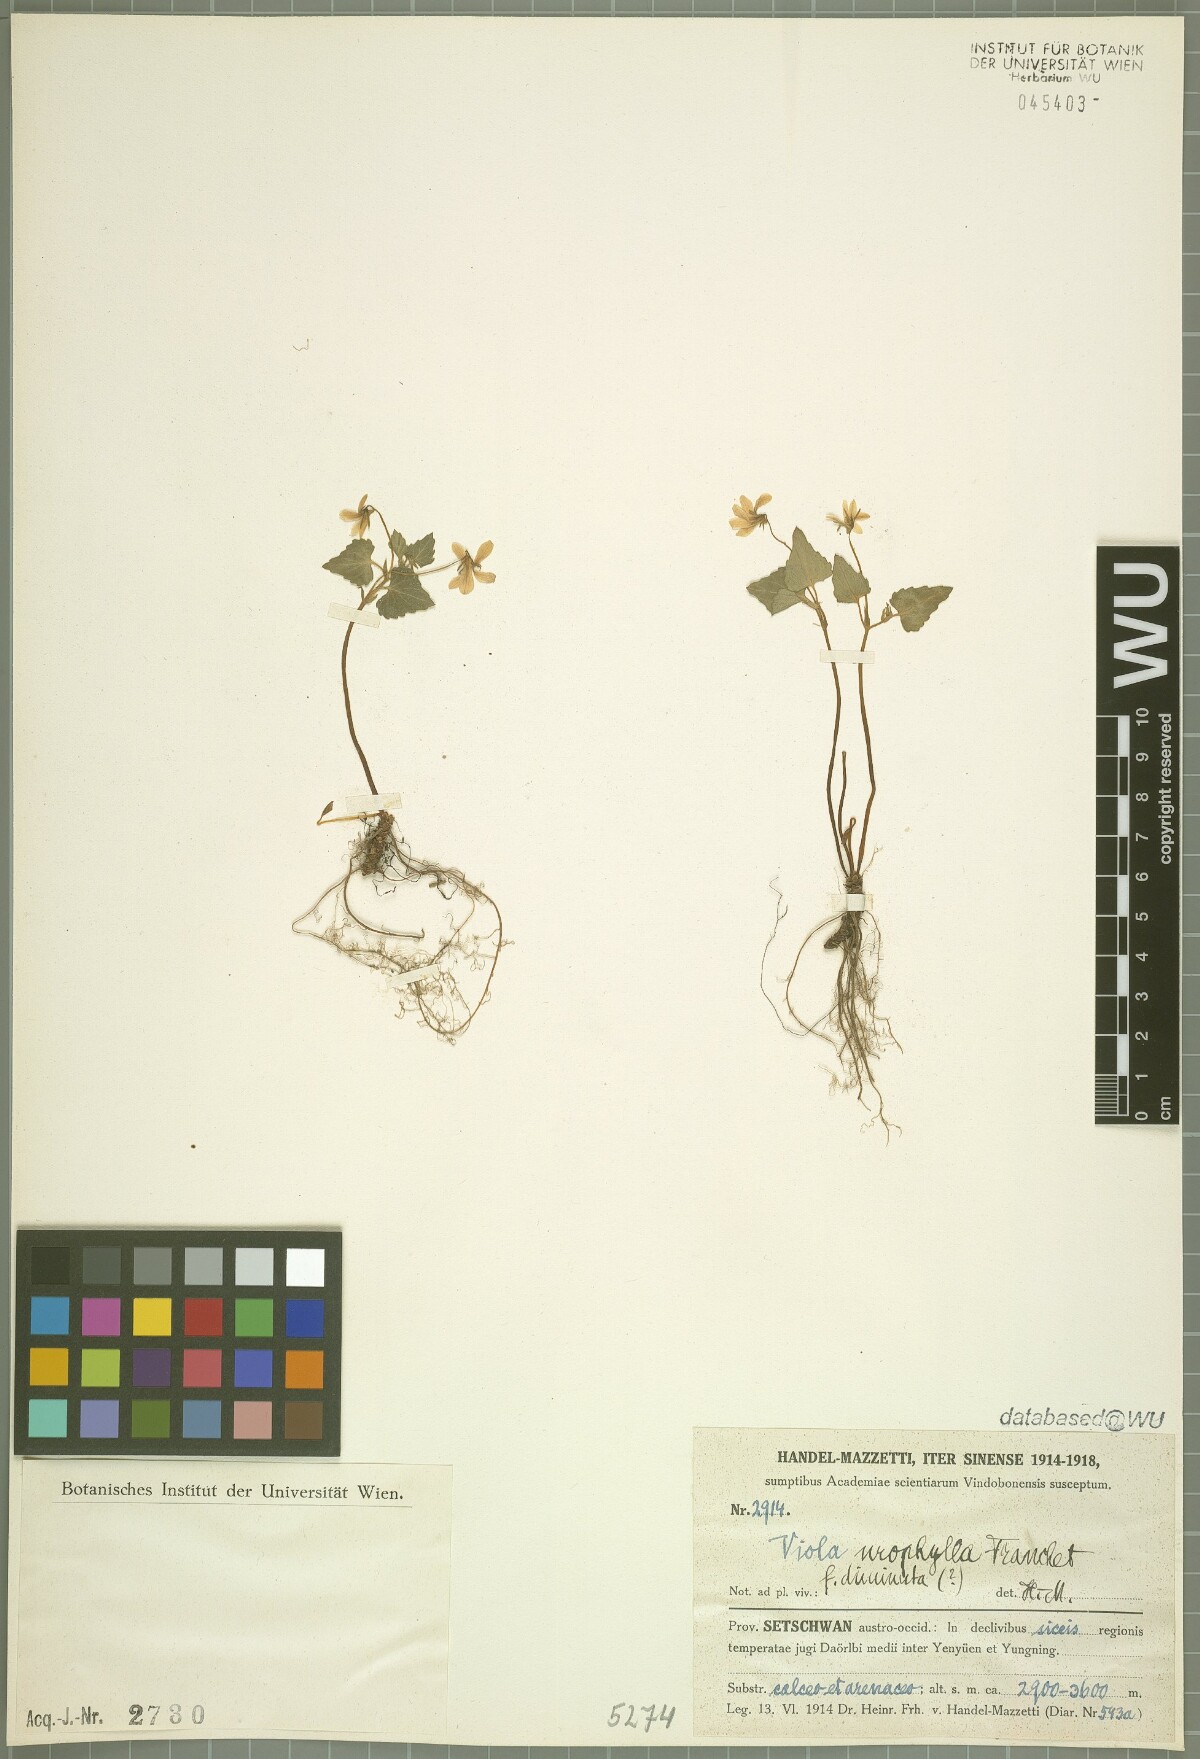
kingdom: Plantae
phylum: Tracheophyta
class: Magnoliopsida
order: Malpighiales
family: Violaceae
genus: Viola
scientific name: Viola urophylla
